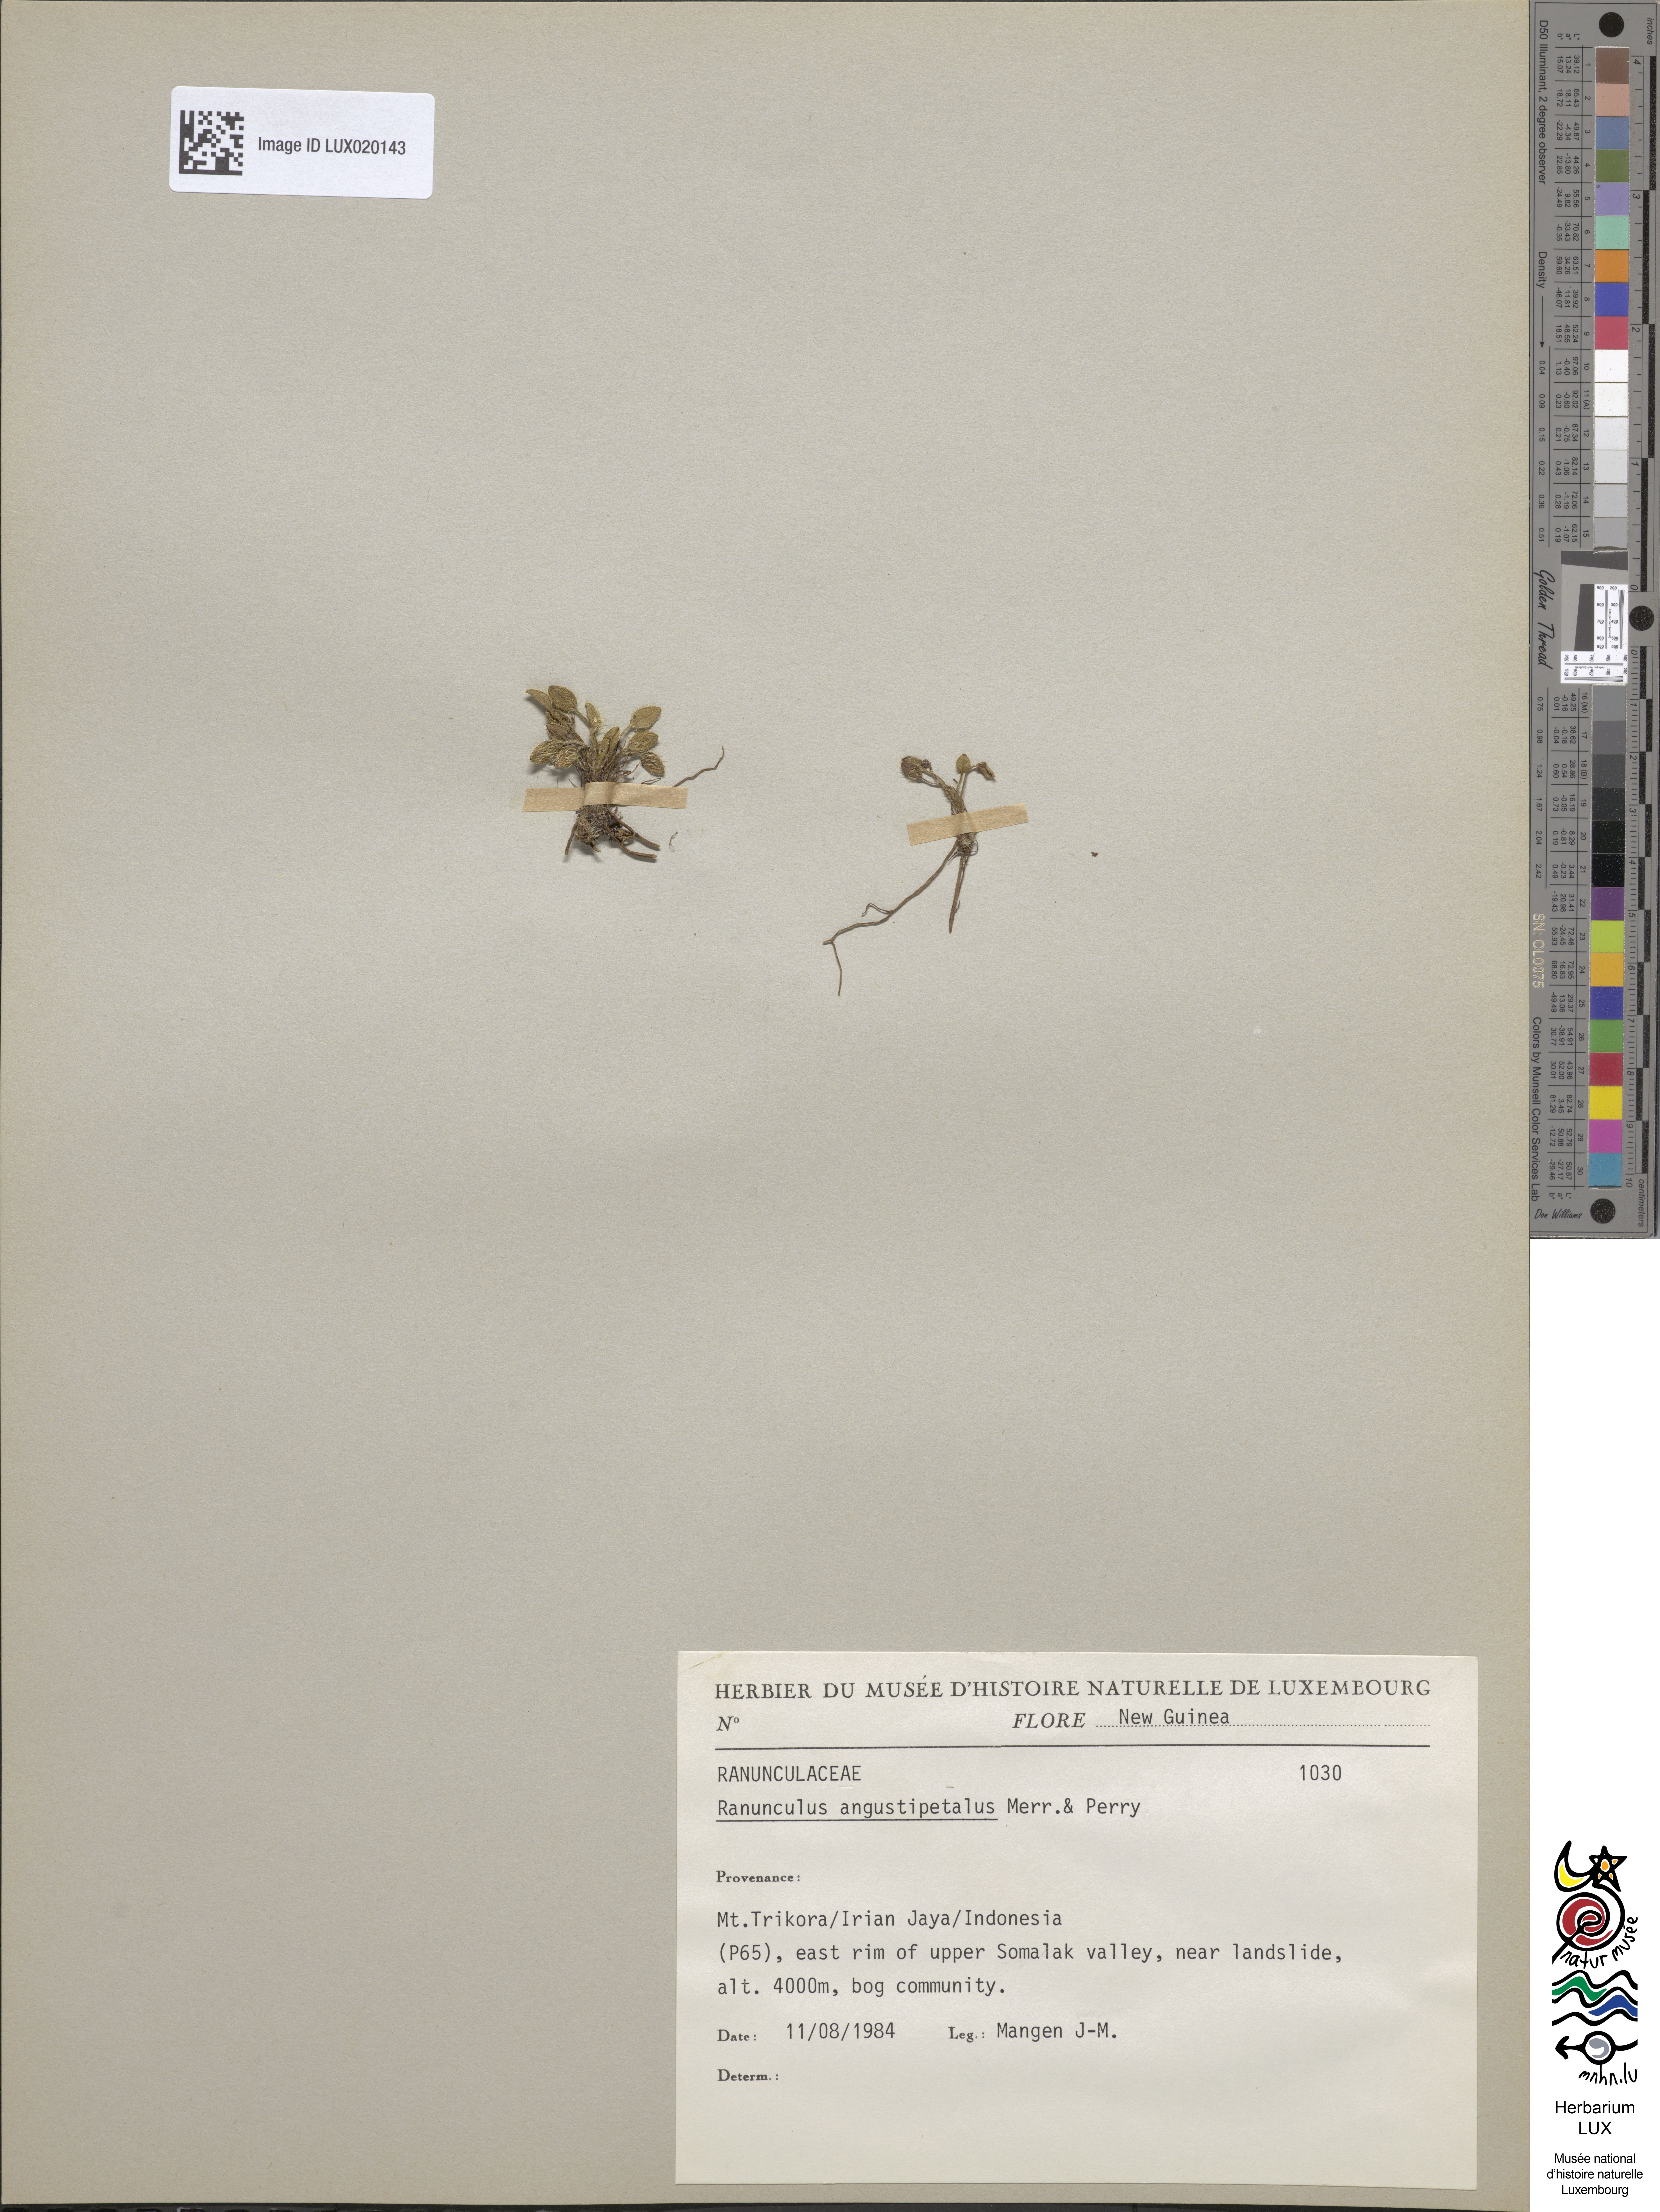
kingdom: Plantae
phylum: Tracheophyta
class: Magnoliopsida
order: Ranunculales
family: Ranunculaceae
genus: Ranunculus
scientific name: Ranunculus angustipetalus
